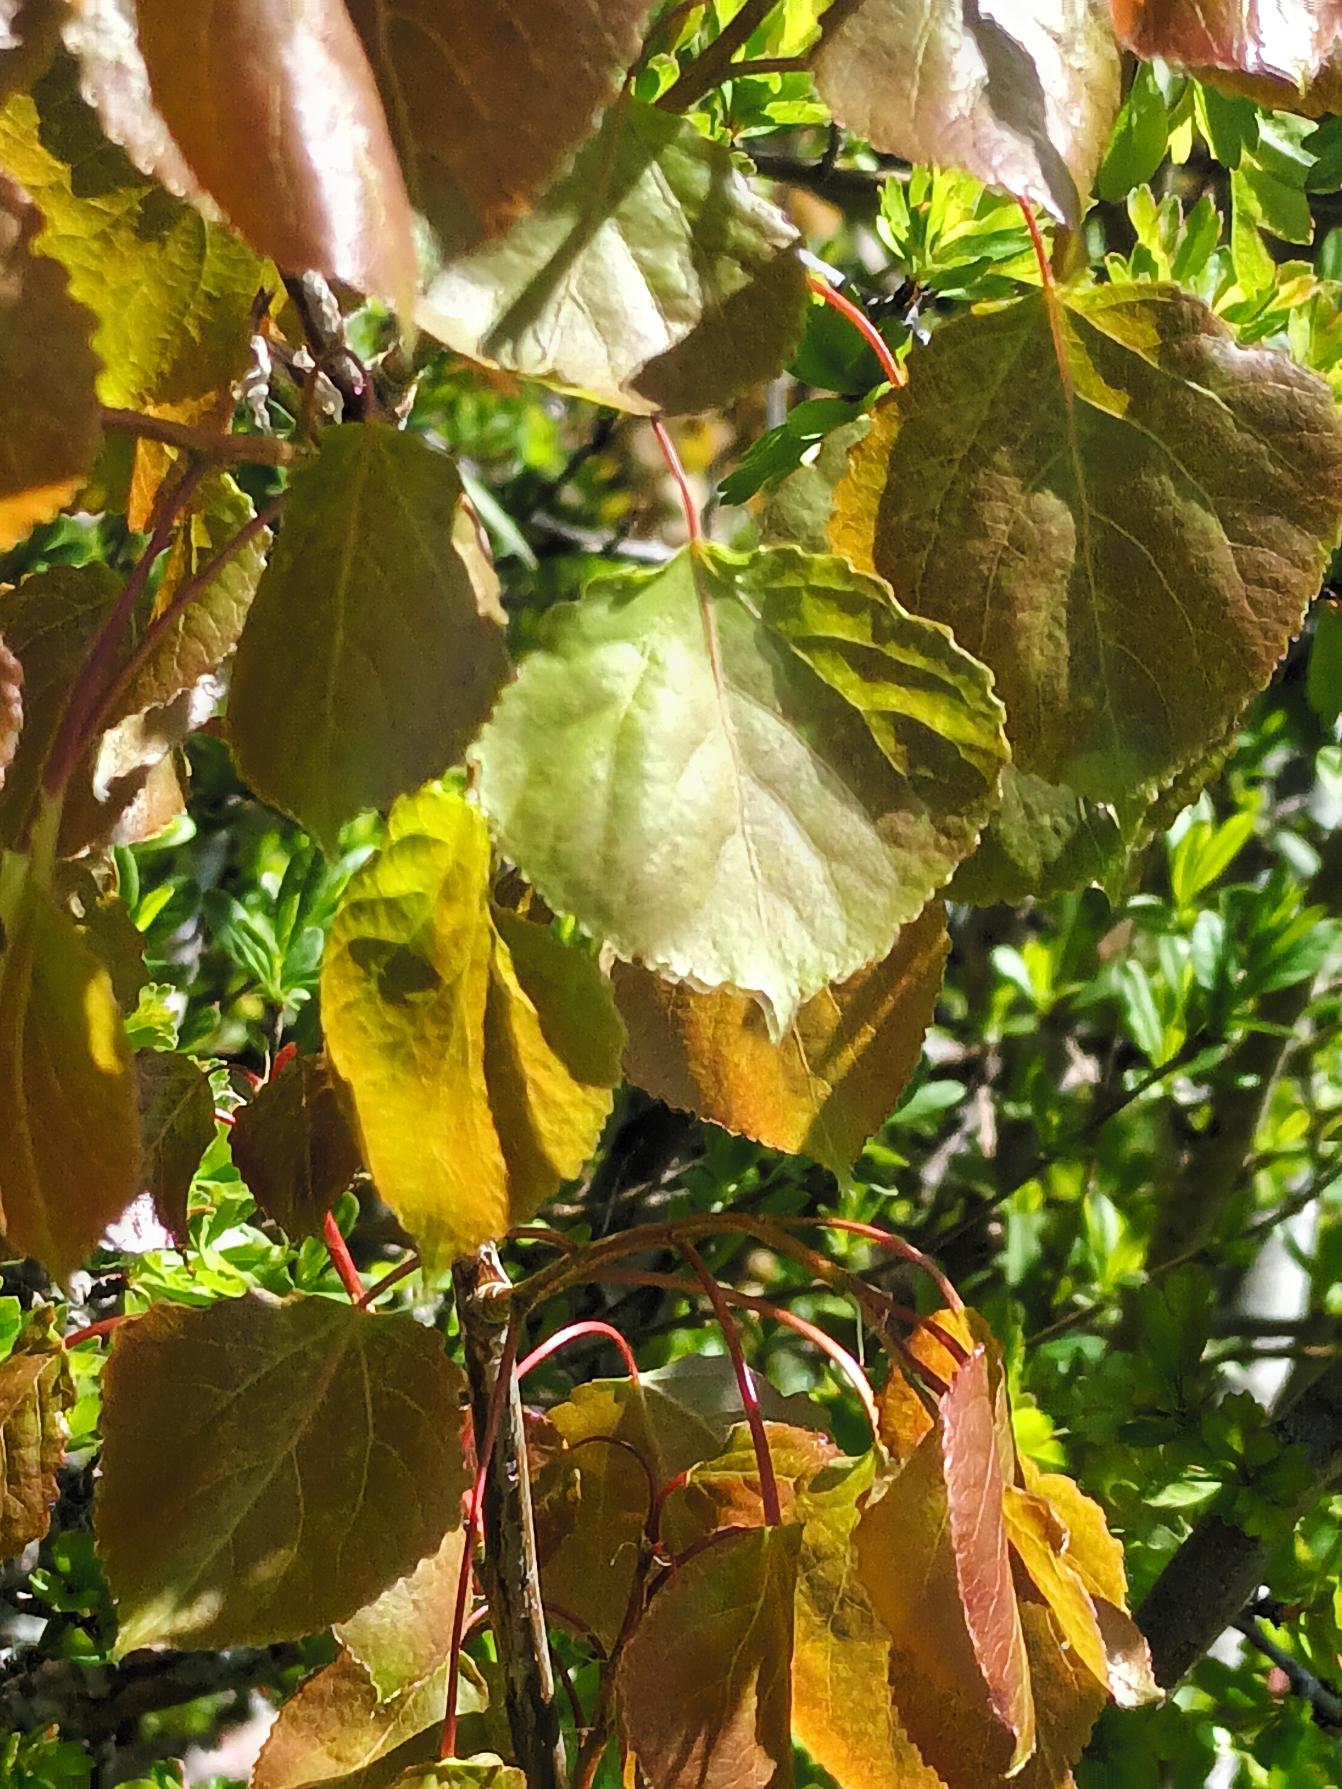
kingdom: Plantae
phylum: Tracheophyta
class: Magnoliopsida
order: Malpighiales
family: Salicaceae
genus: Populus
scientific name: Populus wettsteinii
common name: Hybridasp
